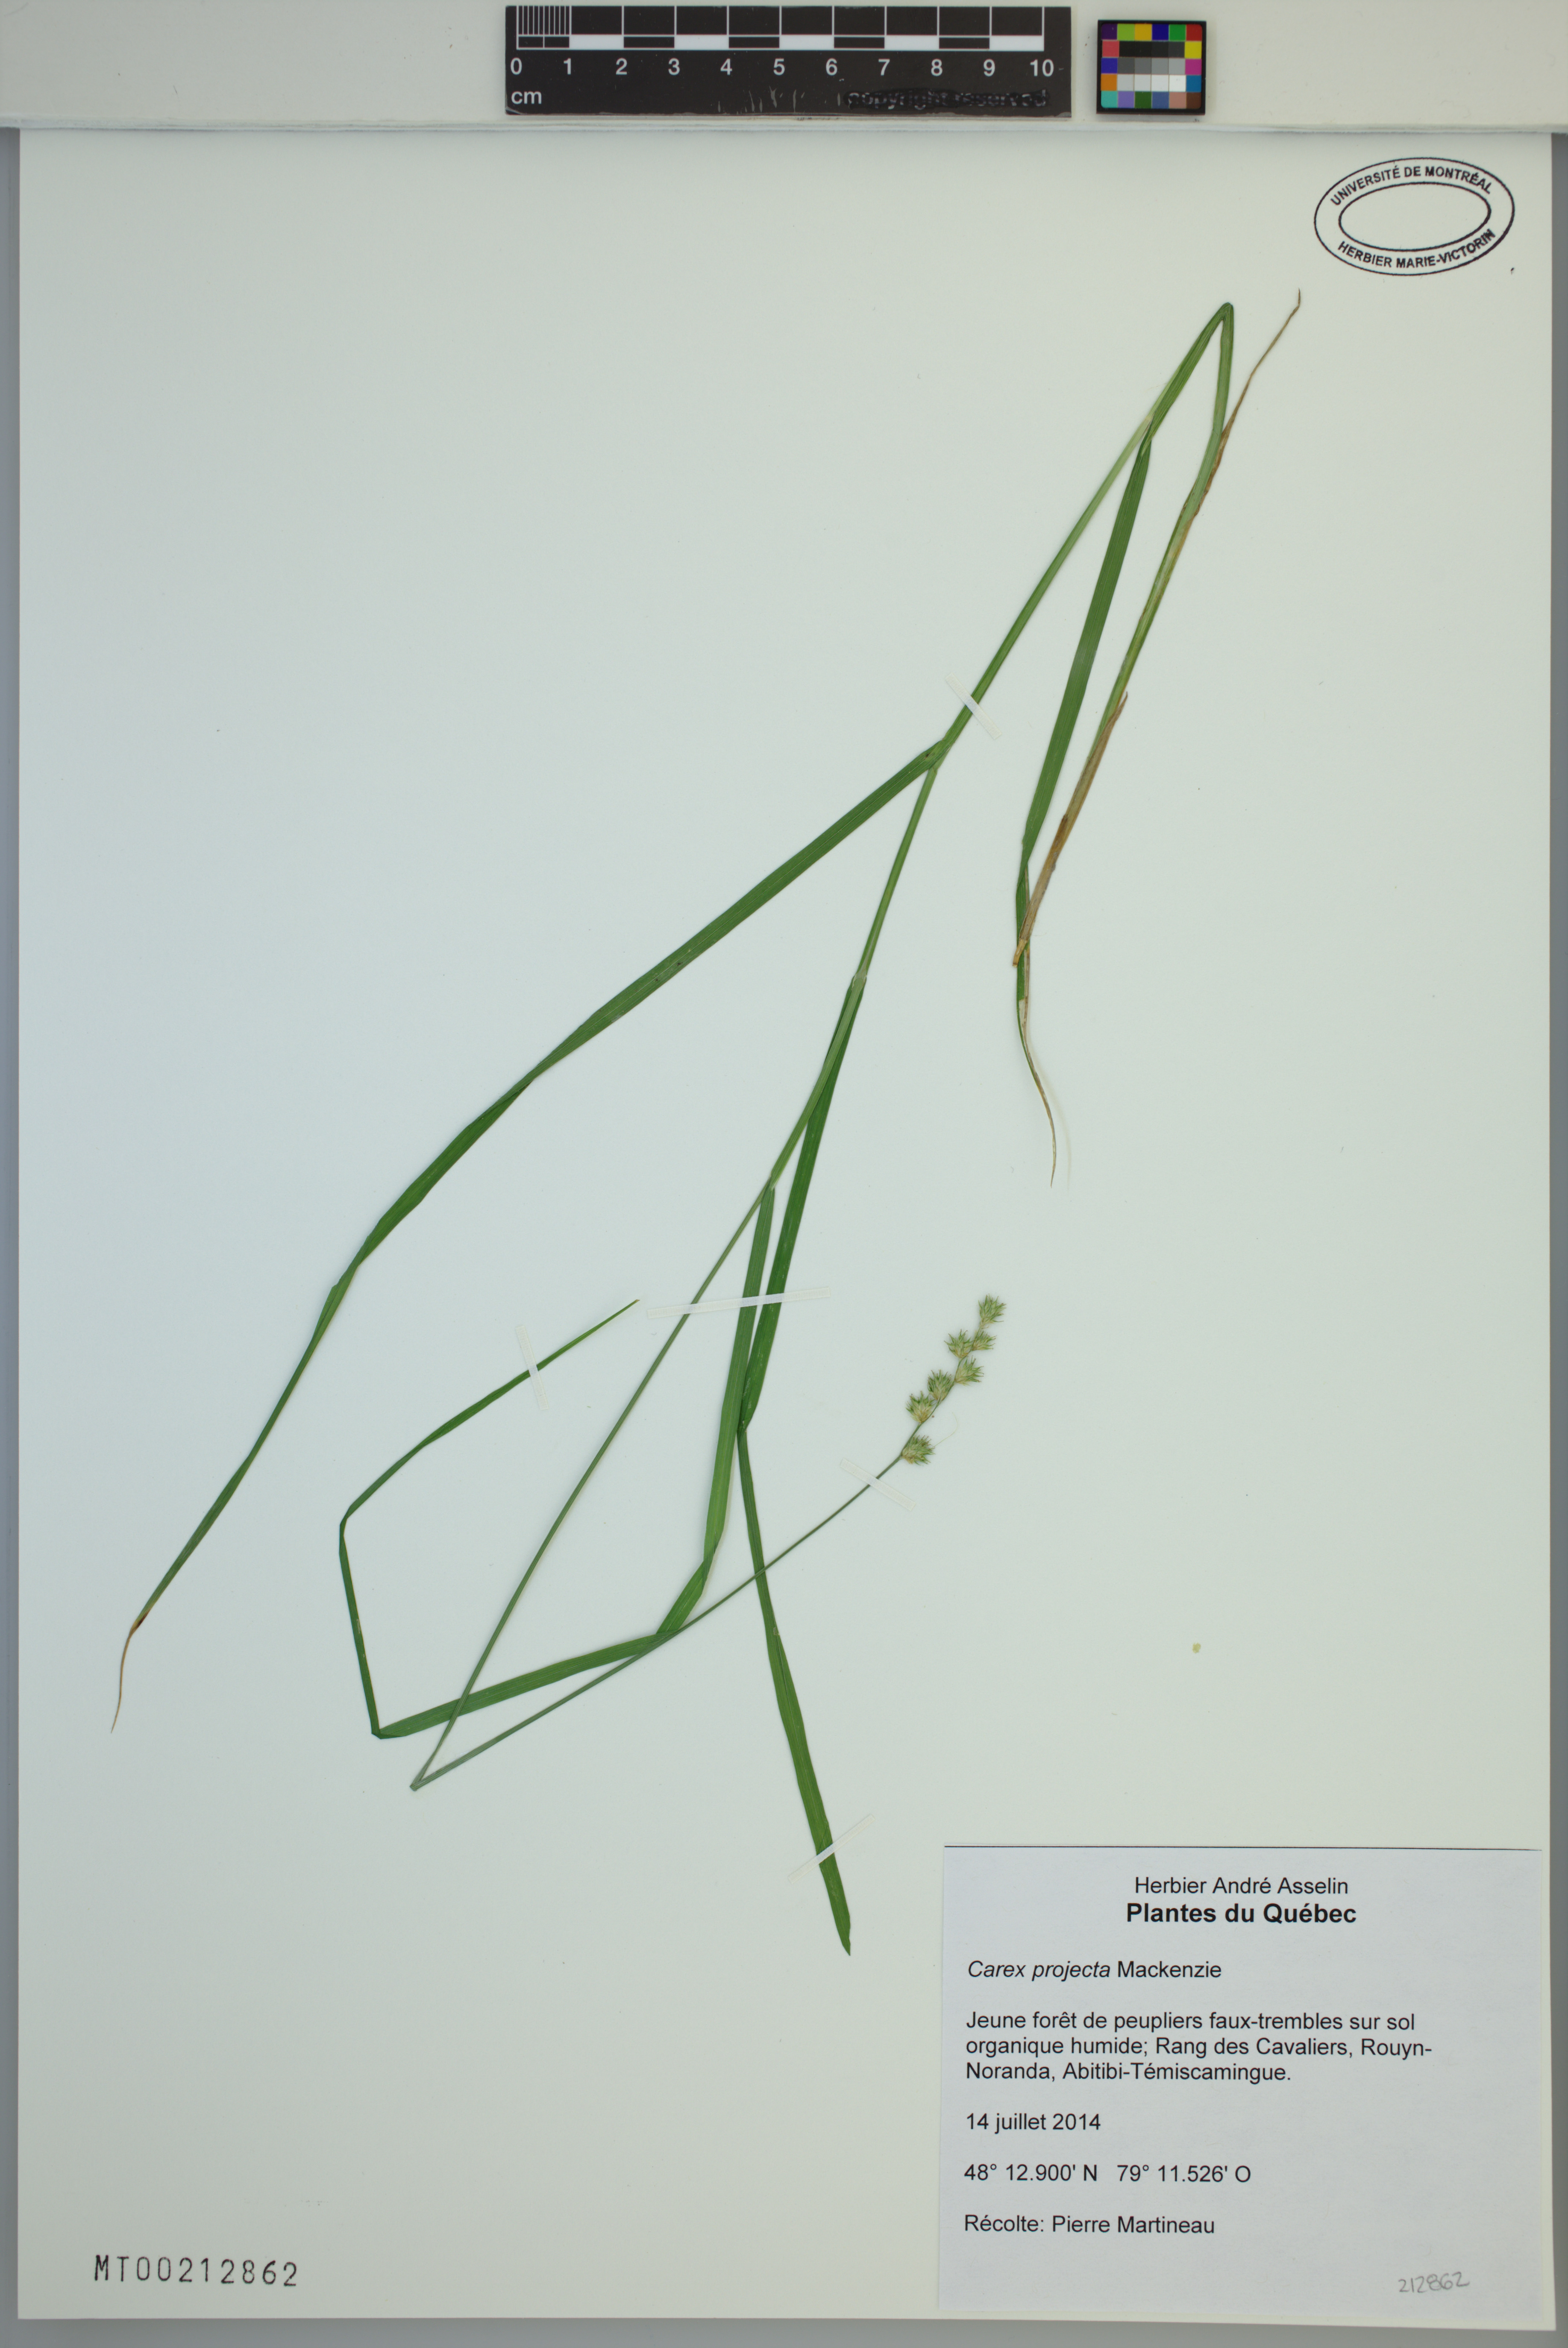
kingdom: Plantae
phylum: Tracheophyta
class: Liliopsida
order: Poales
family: Cyperaceae
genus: Carex
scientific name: Carex projecta
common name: Loose-headed oval sedge
